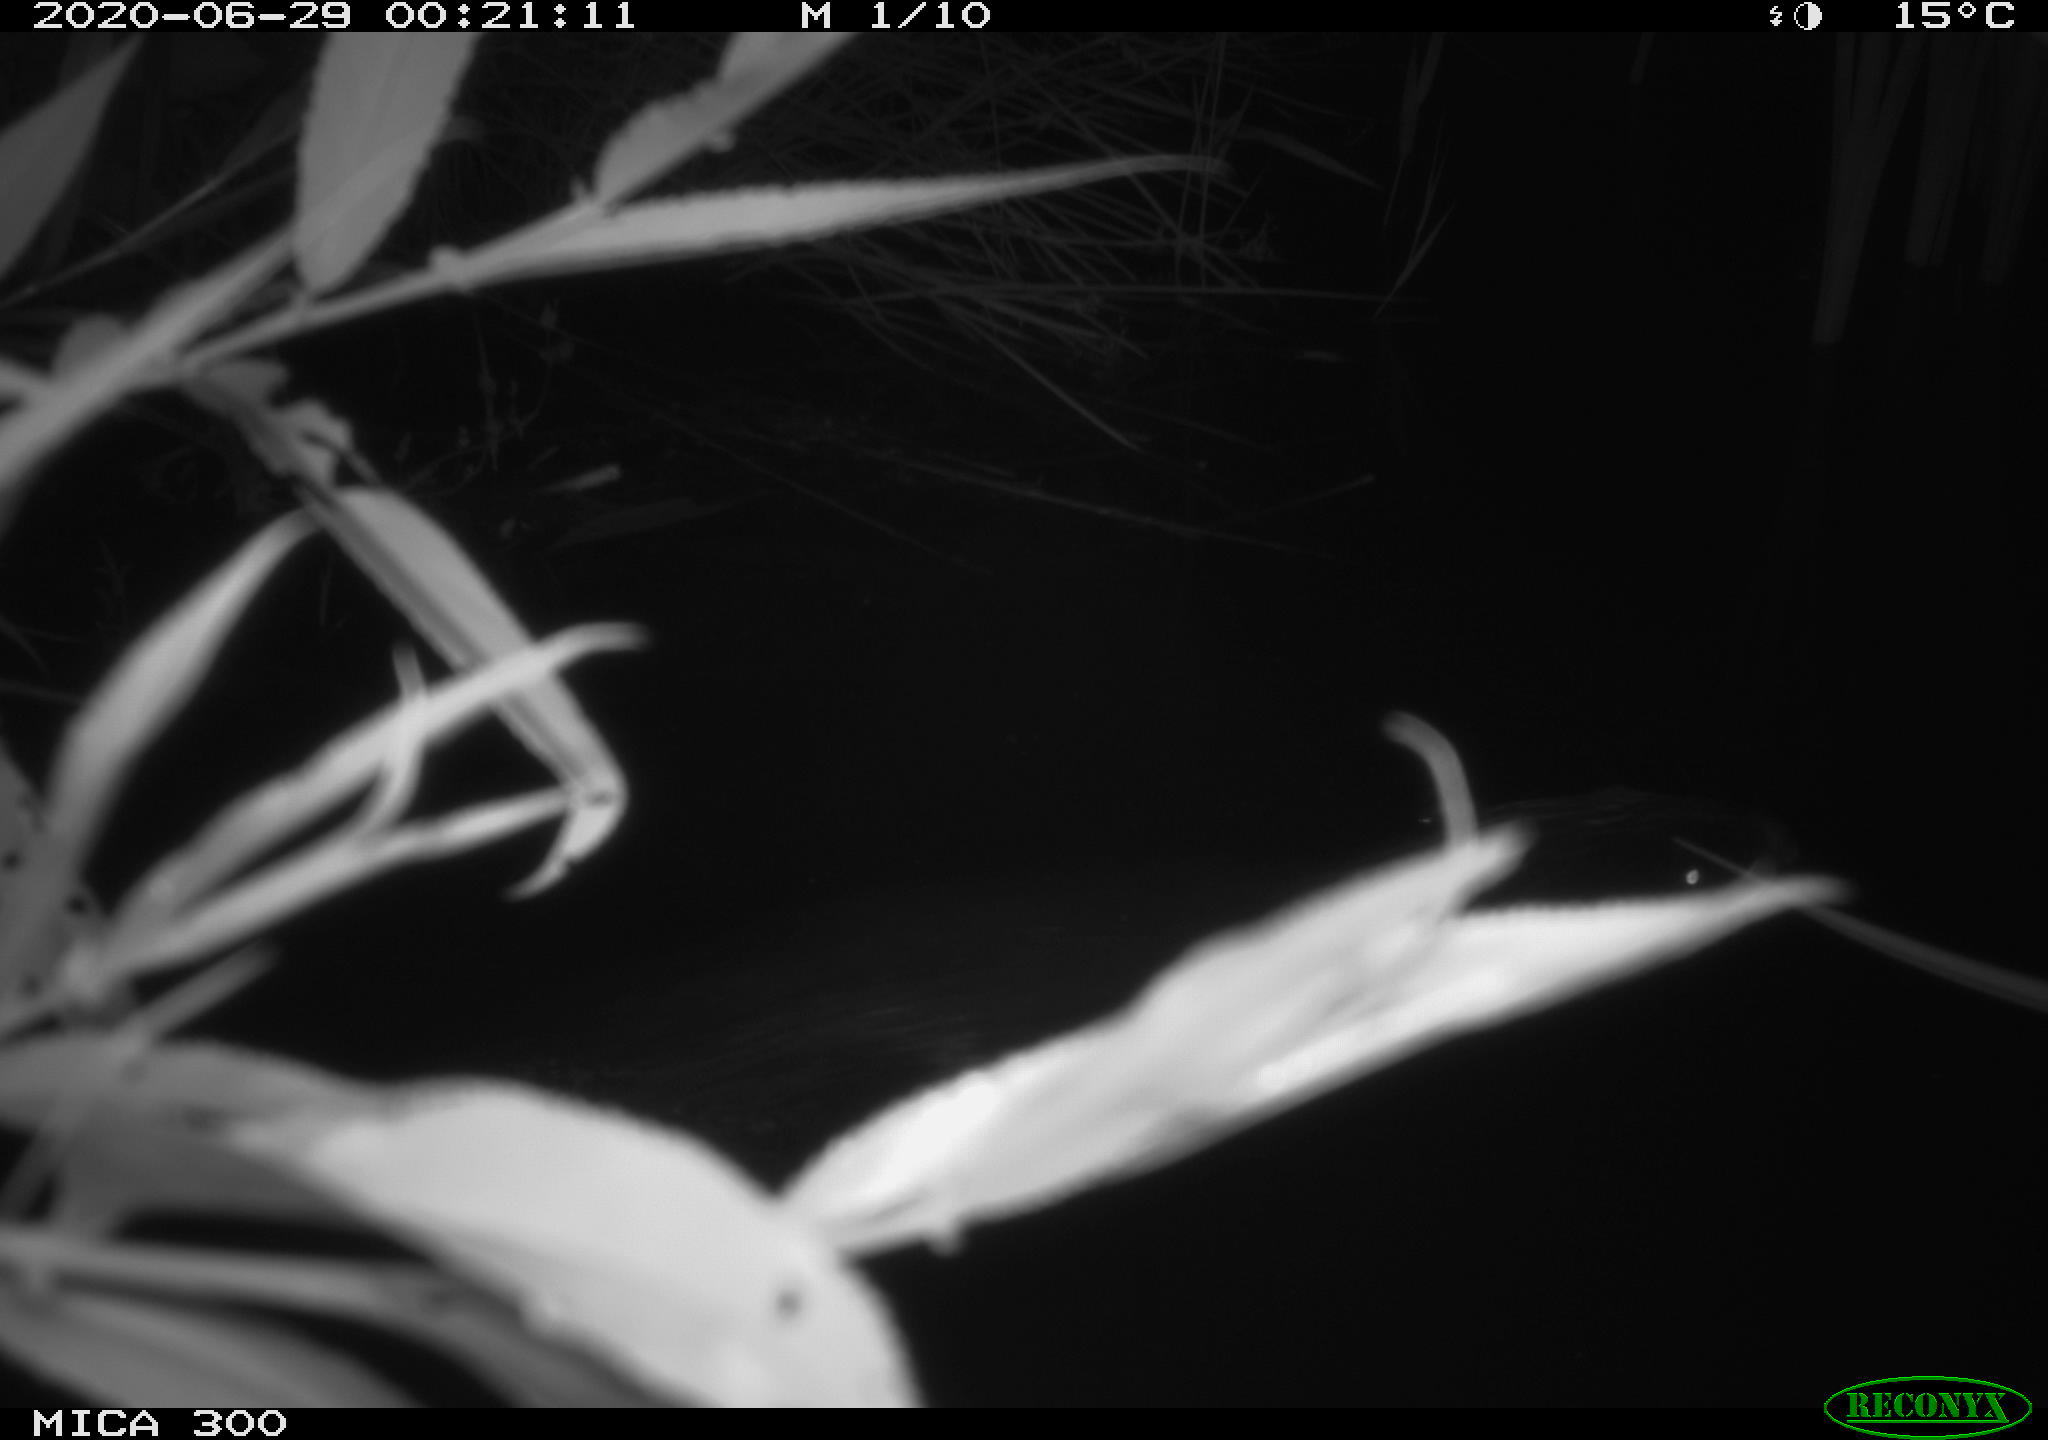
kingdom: Animalia
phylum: Chordata
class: Mammalia
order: Rodentia
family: Castoridae
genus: Castor
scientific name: Castor fiber
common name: Eurasian beaver
